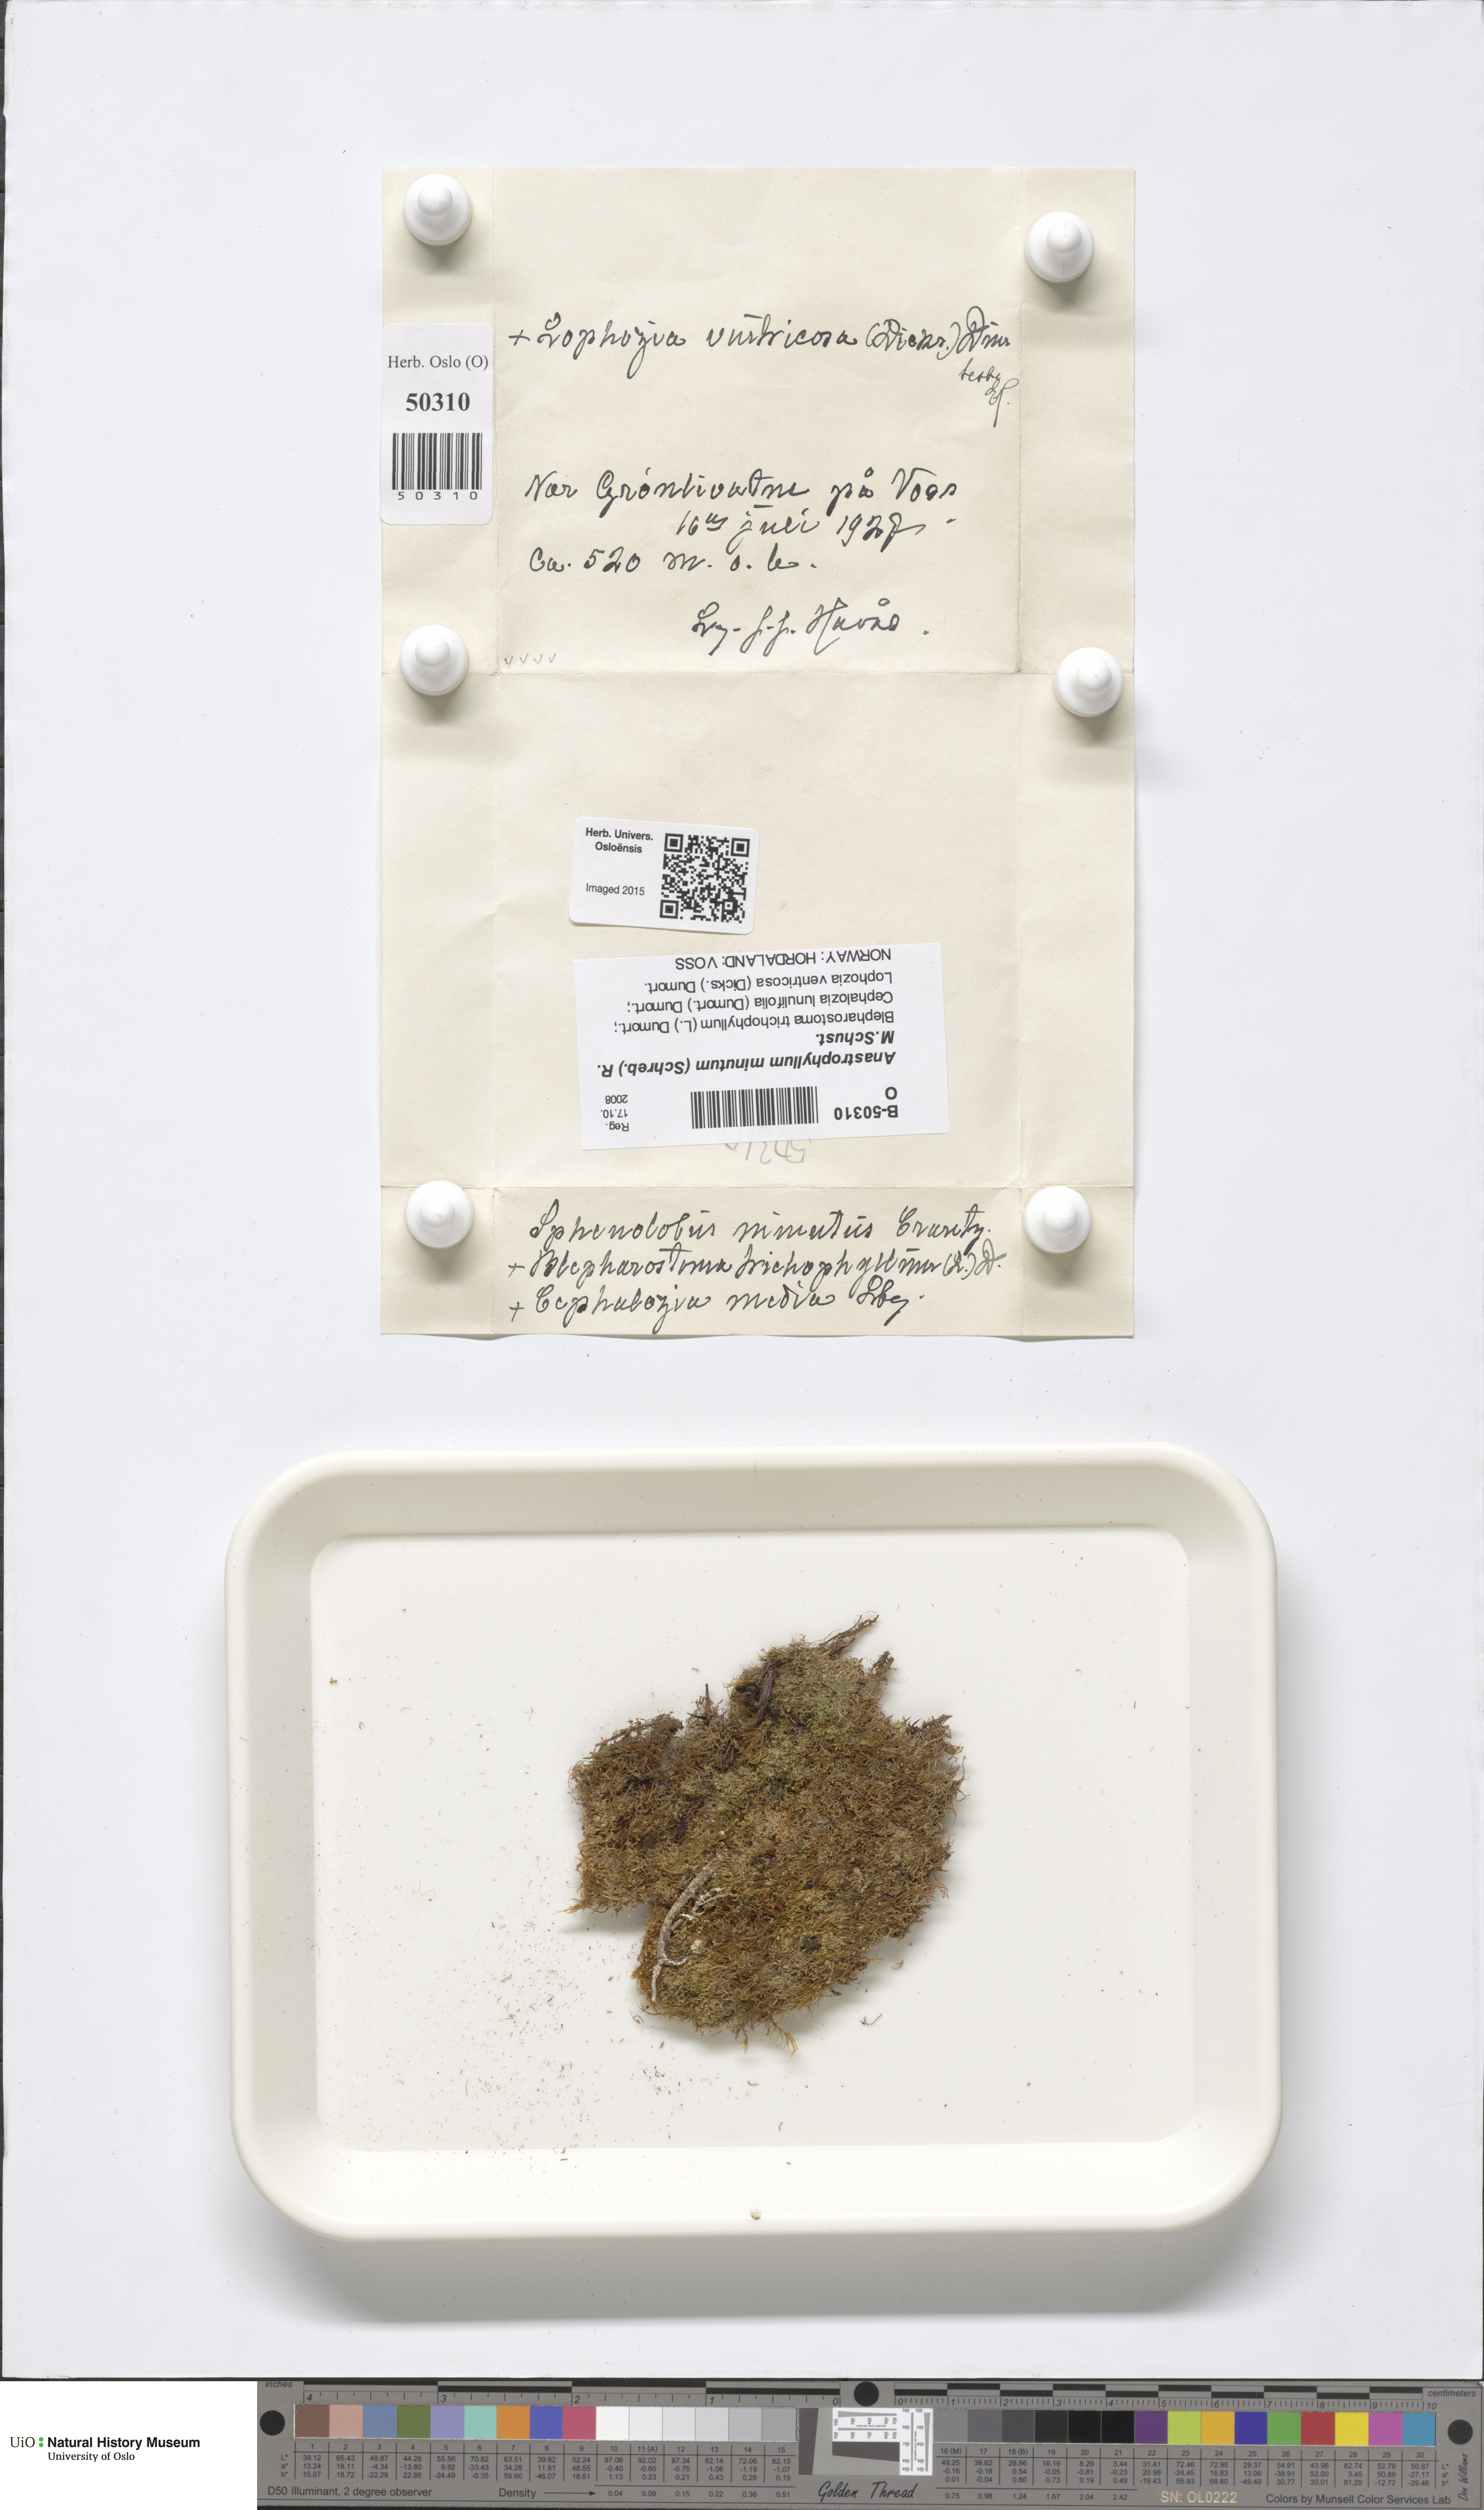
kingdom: Plantae
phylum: Marchantiophyta
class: Jungermanniopsida
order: Jungermanniales
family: Anastrophyllaceae
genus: Sphenolobus
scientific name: Sphenolobus minutus
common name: Comb notchwort
